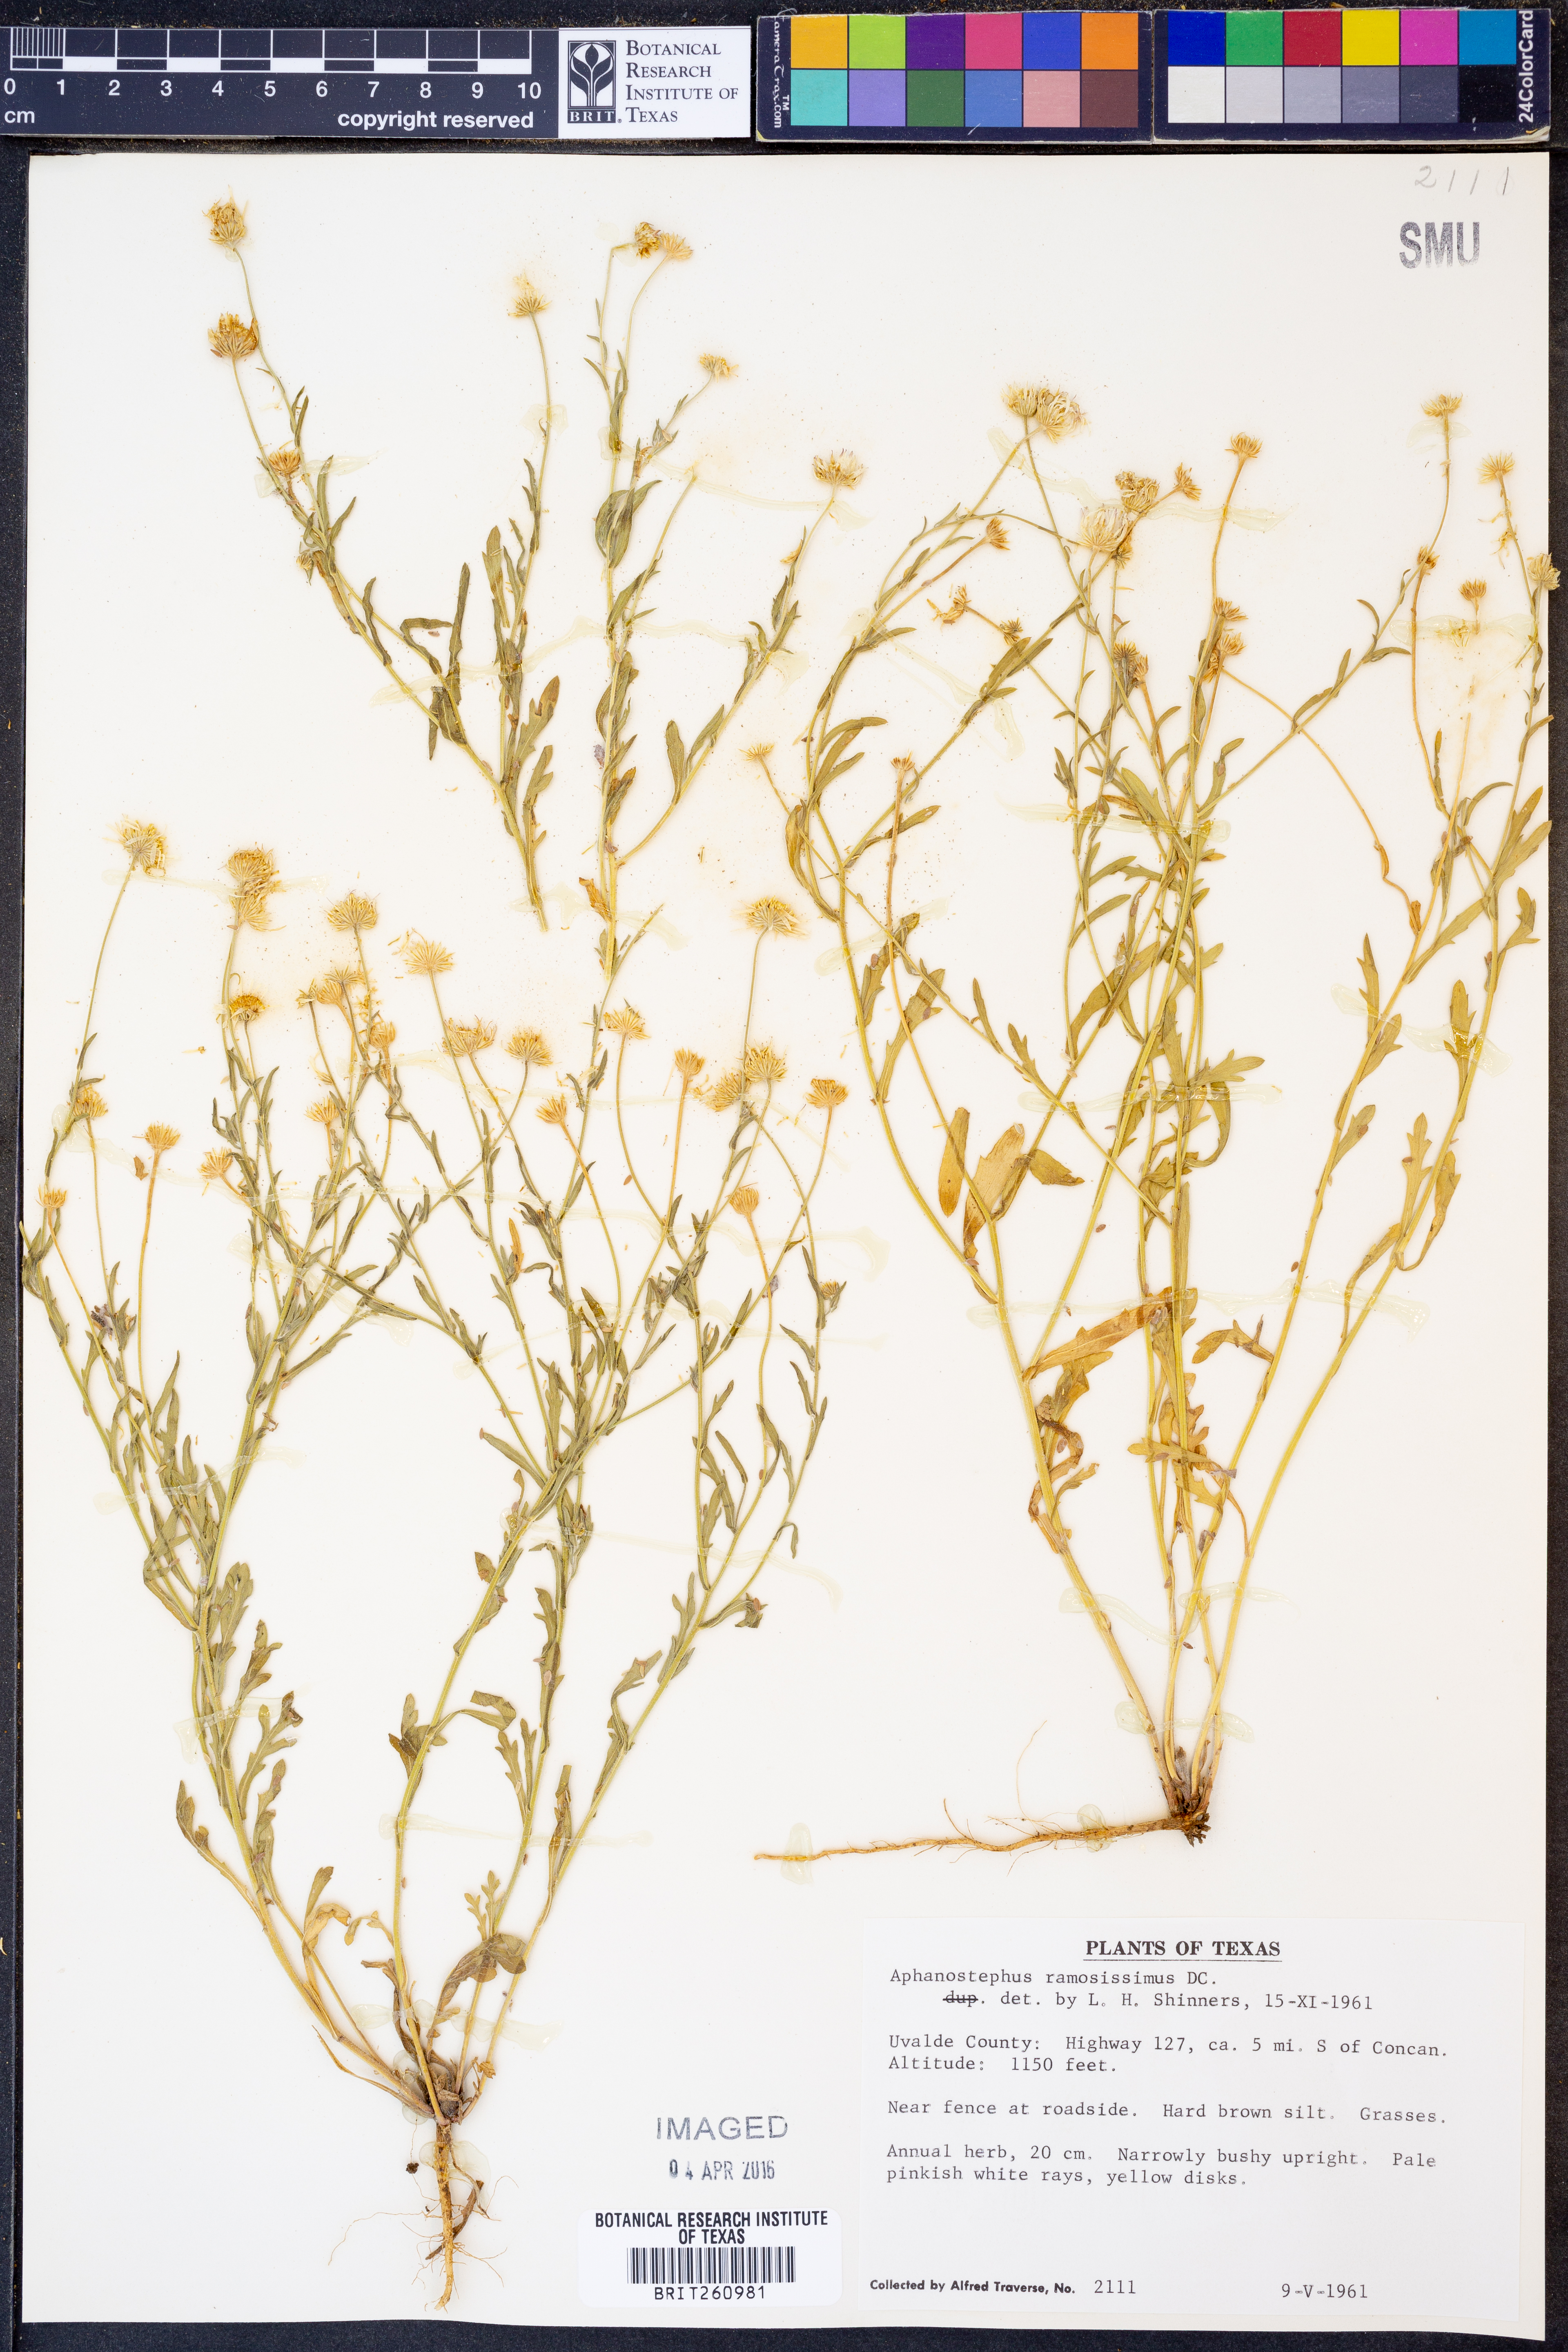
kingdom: Plantae
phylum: Tracheophyta
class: Magnoliopsida
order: Asterales
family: Asteraceae
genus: Aphanostephus
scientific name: Aphanostephus ramosissimus
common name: Plains lazy daisy
